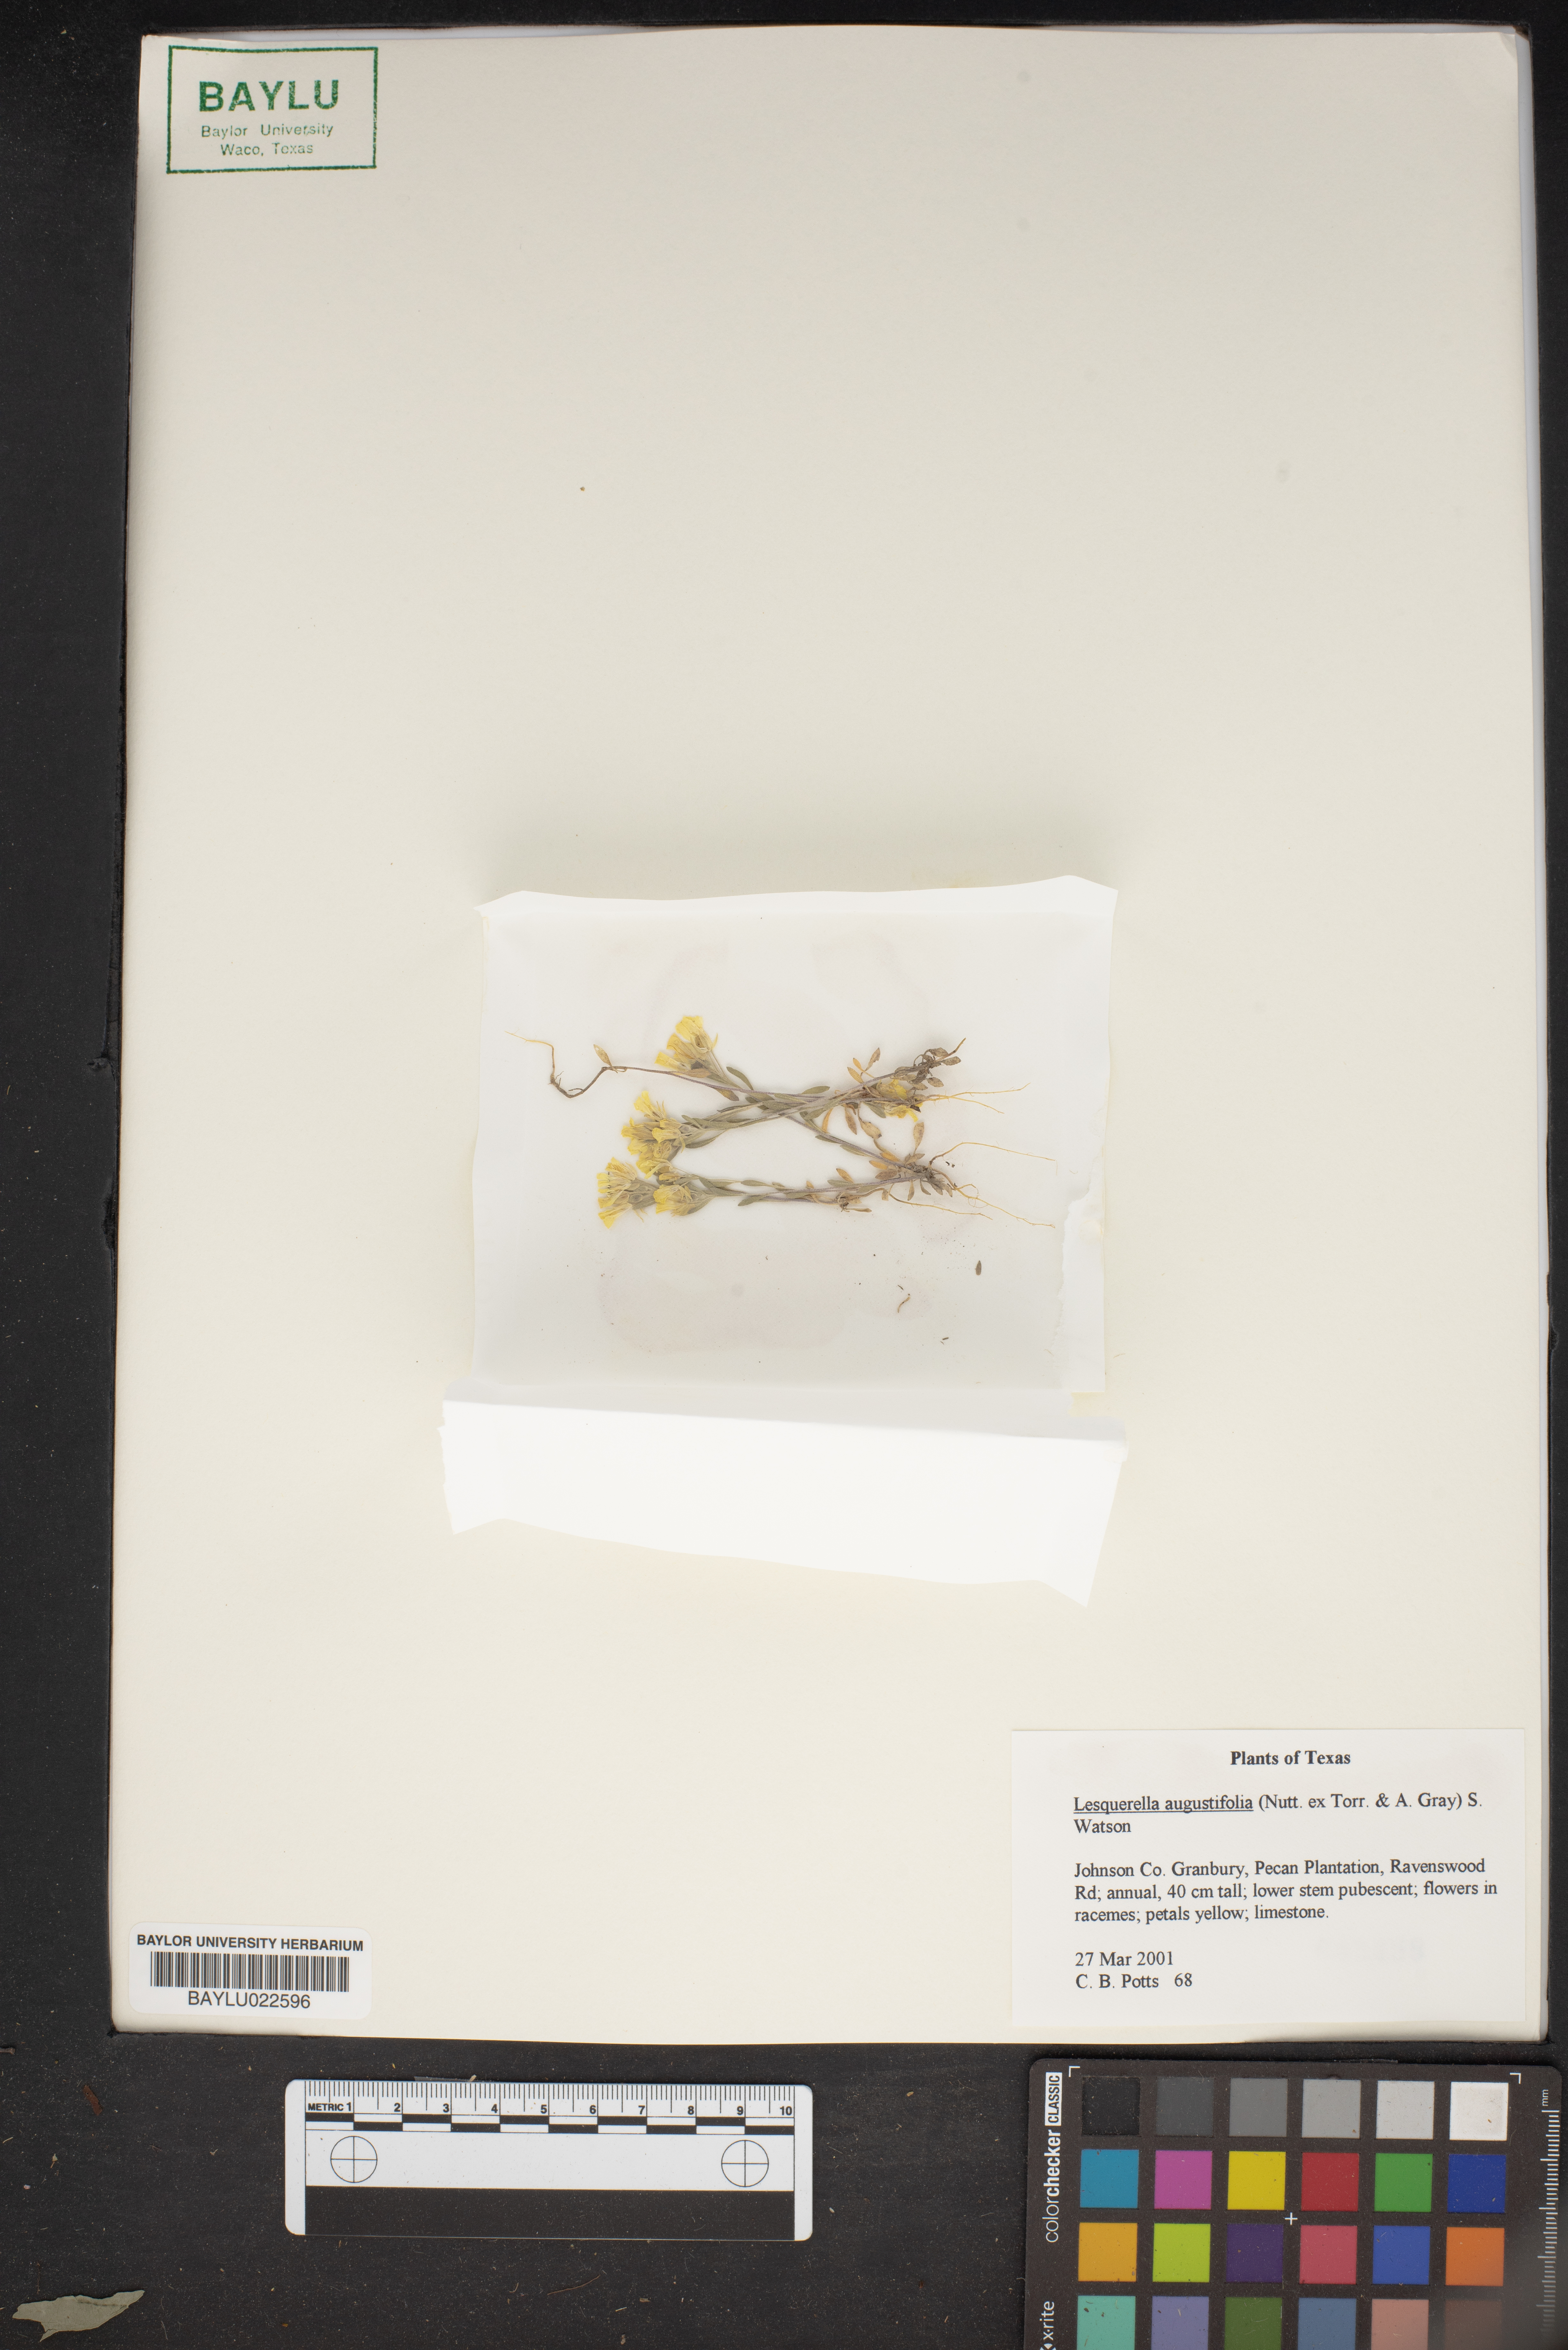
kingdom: Plantae
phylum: Tracheophyta
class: Magnoliopsida
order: Brassicales
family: Brassicaceae
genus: Physaria
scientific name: Physaria angustifolia
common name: Threadleaf bladderpod
